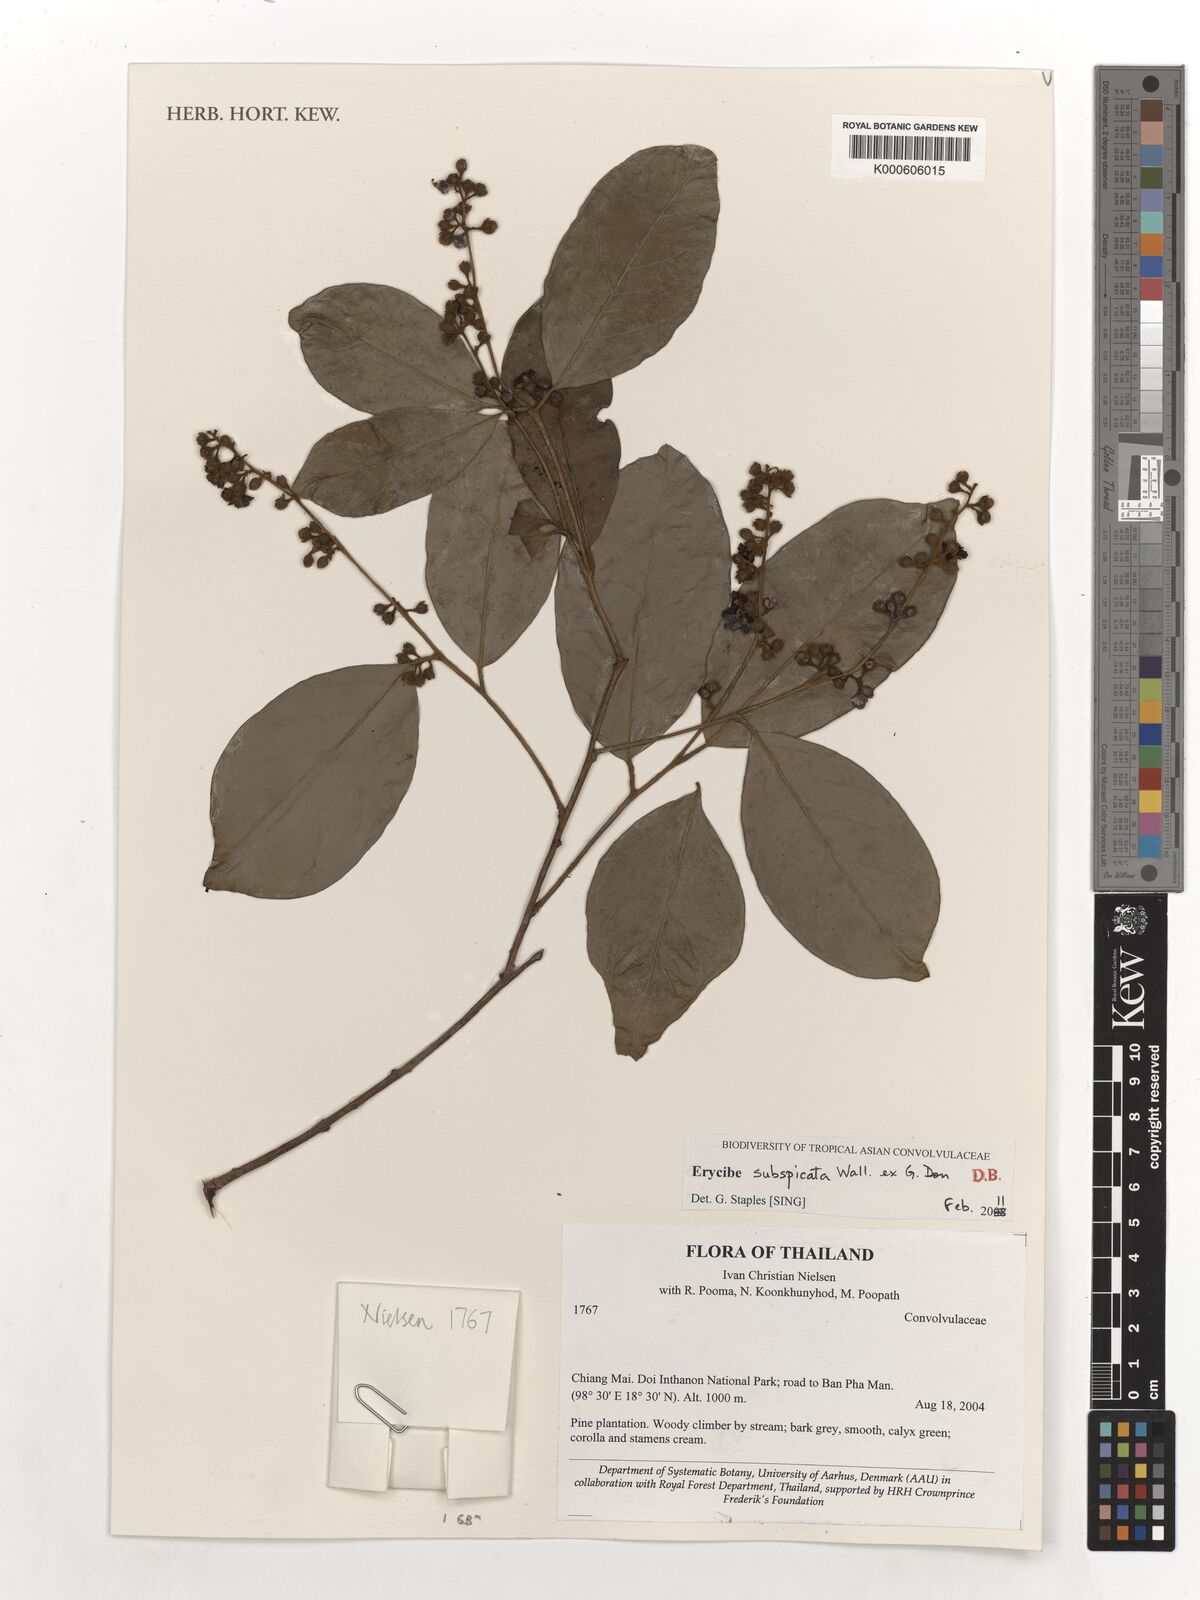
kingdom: Plantae
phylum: Tracheophyta
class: Magnoliopsida
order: Solanales
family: Convolvulaceae
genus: Erycibe
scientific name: Erycibe subspicata
